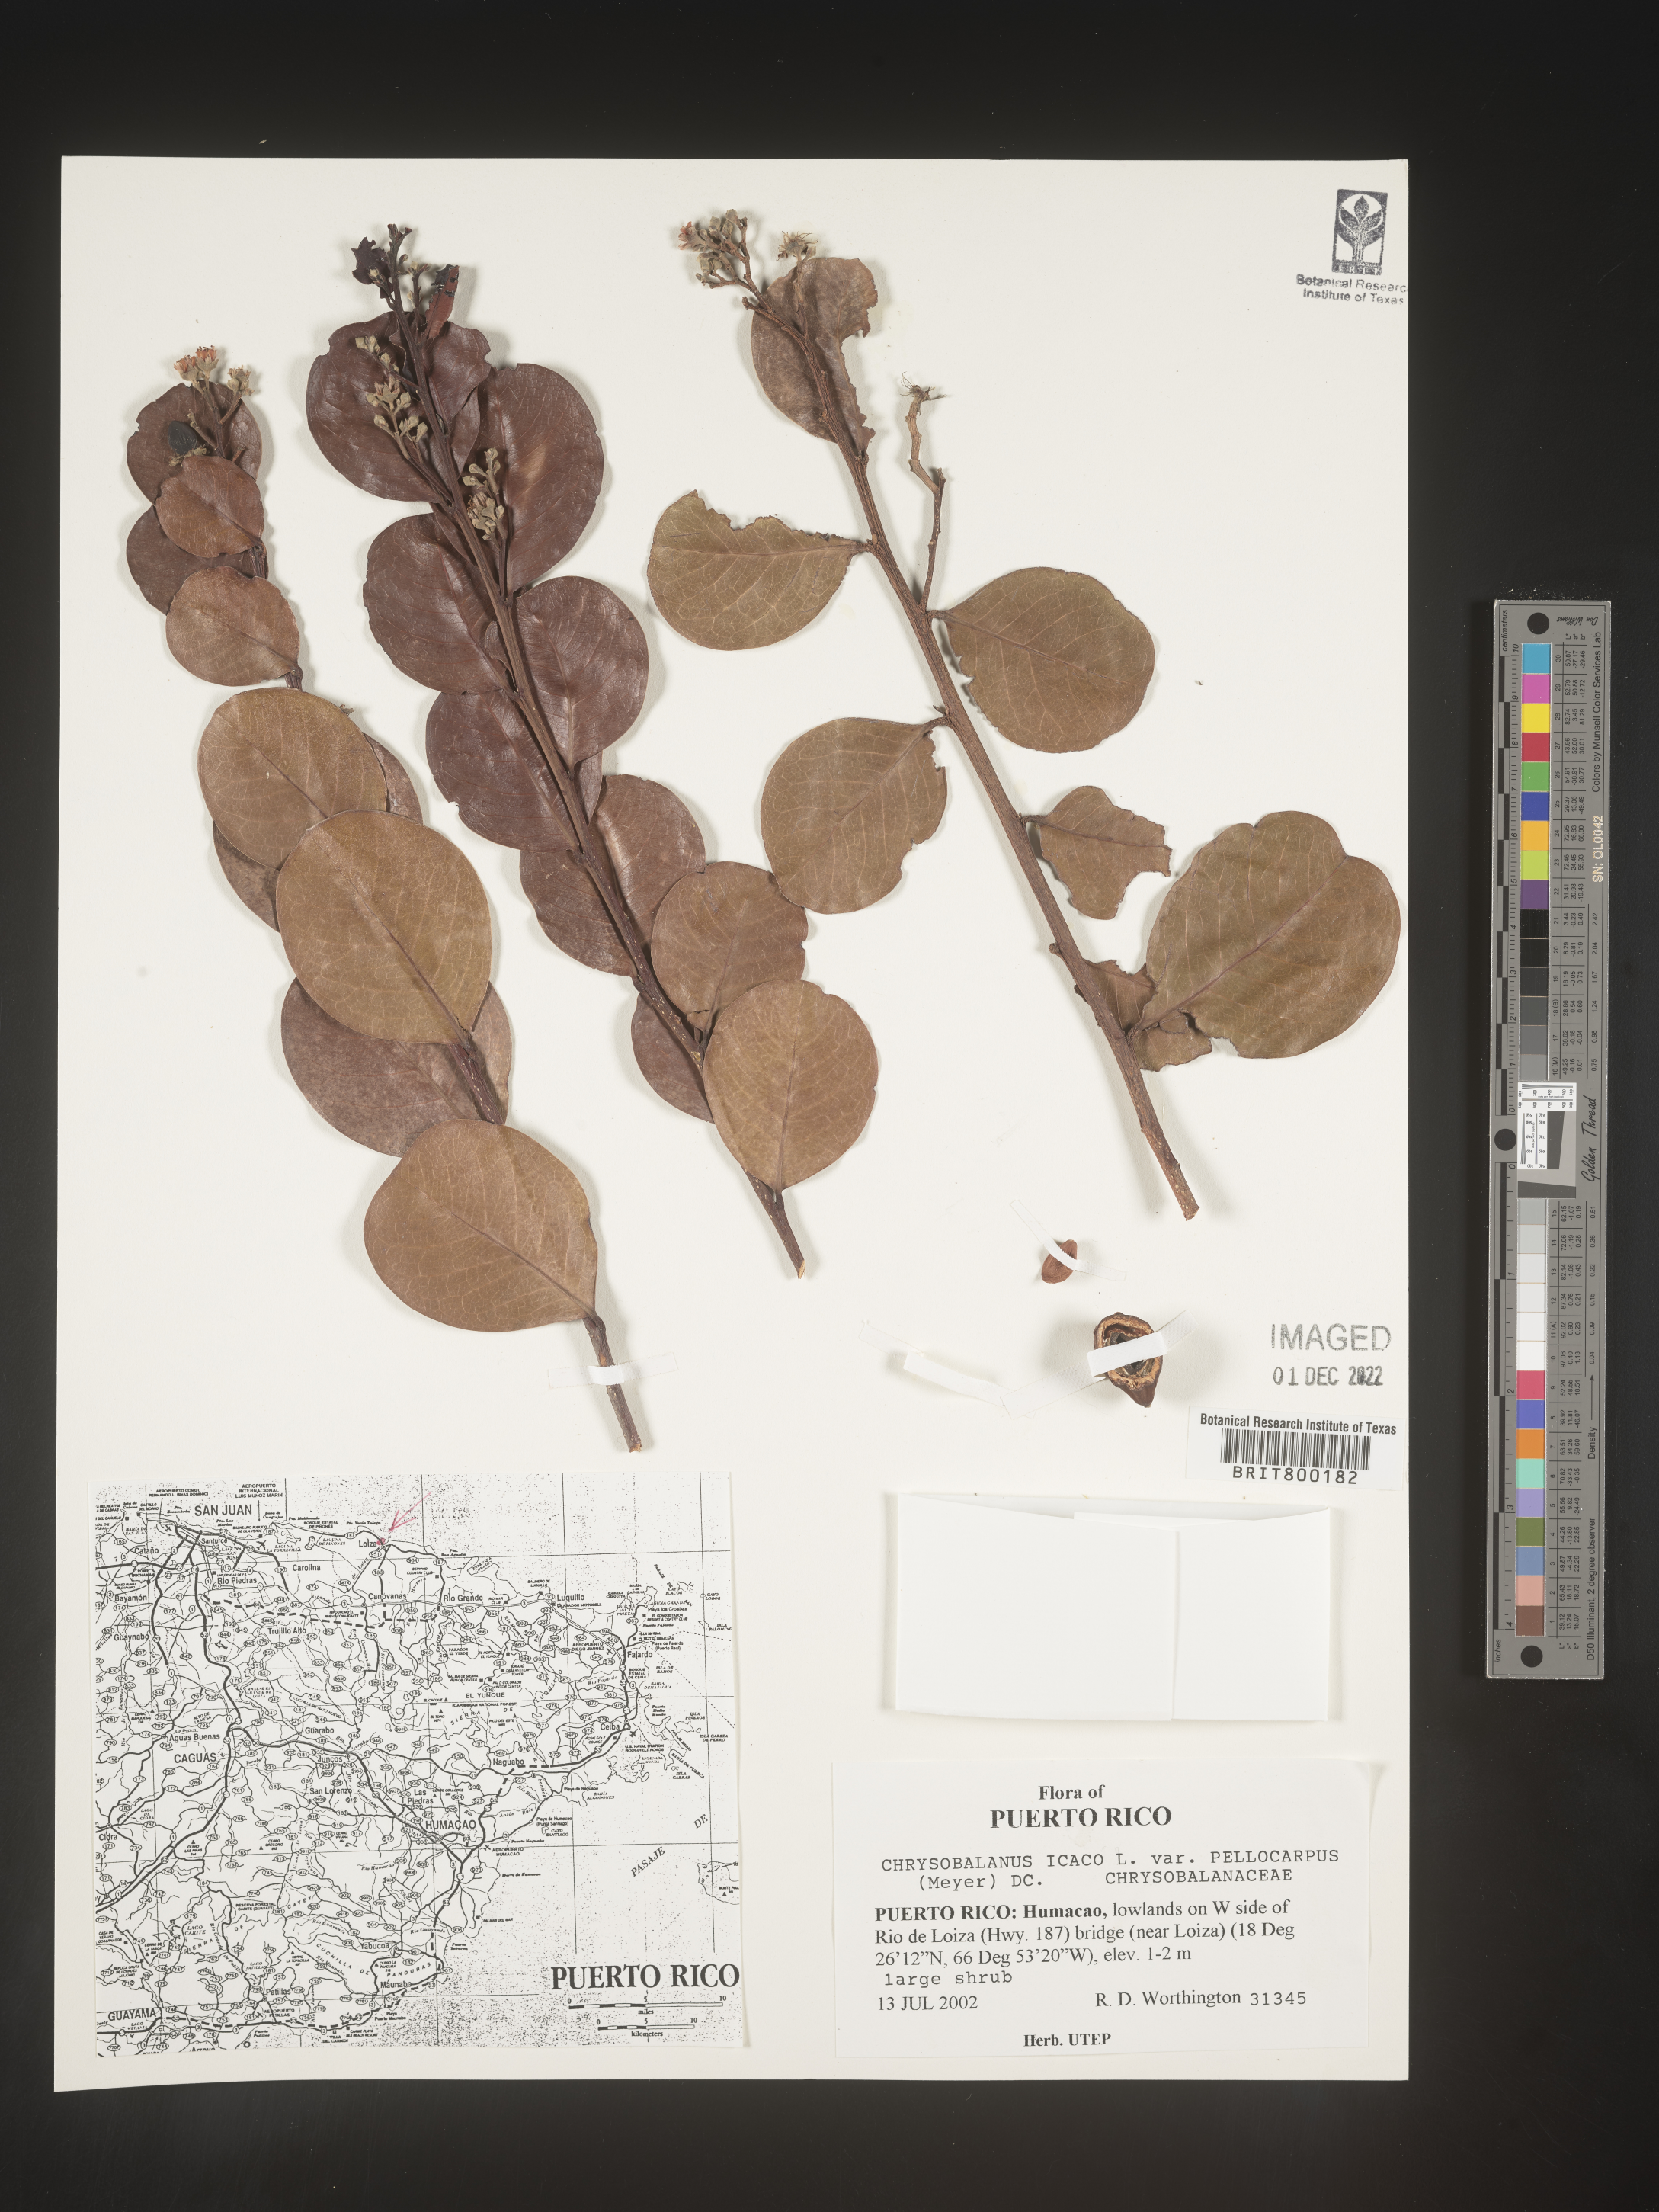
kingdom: Plantae
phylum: Tracheophyta
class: Magnoliopsida
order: Malpighiales
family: Chrysobalanaceae
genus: Chrysobalanus
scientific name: Chrysobalanus
